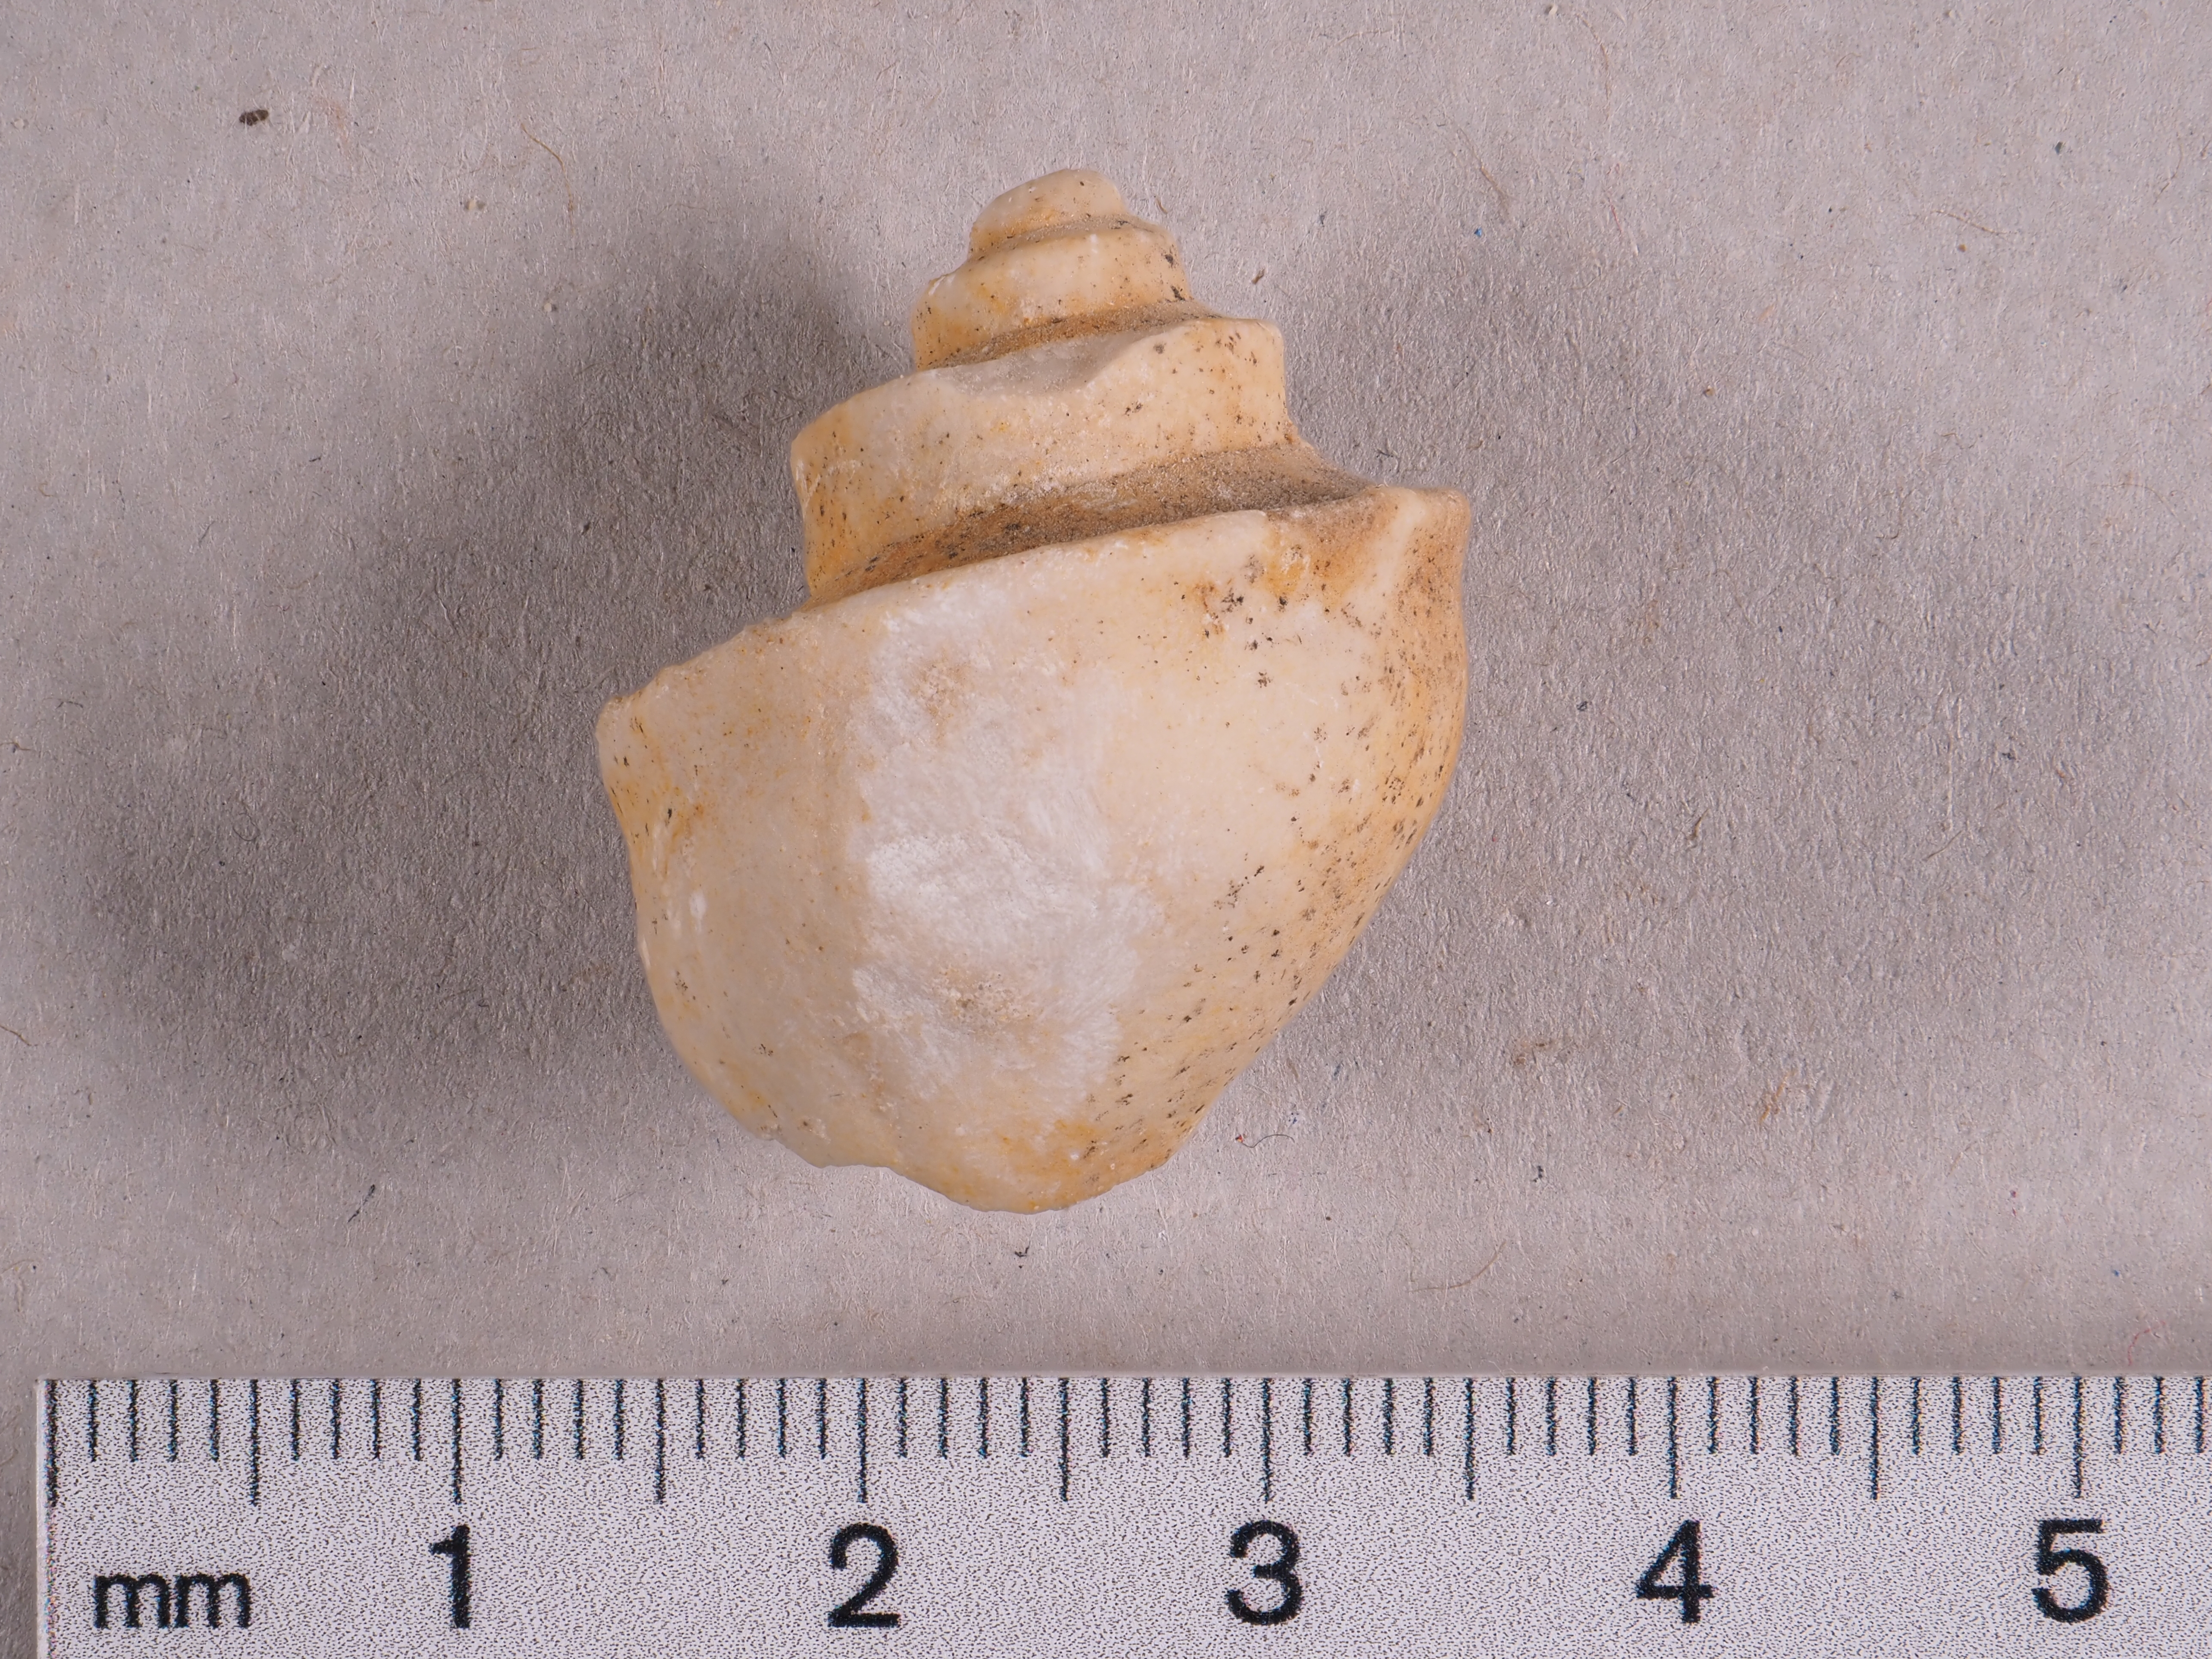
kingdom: Animalia
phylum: Mollusca
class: Gastropoda
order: Neogastropoda
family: Purpurinidae
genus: Tretospira
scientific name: Tretospira
